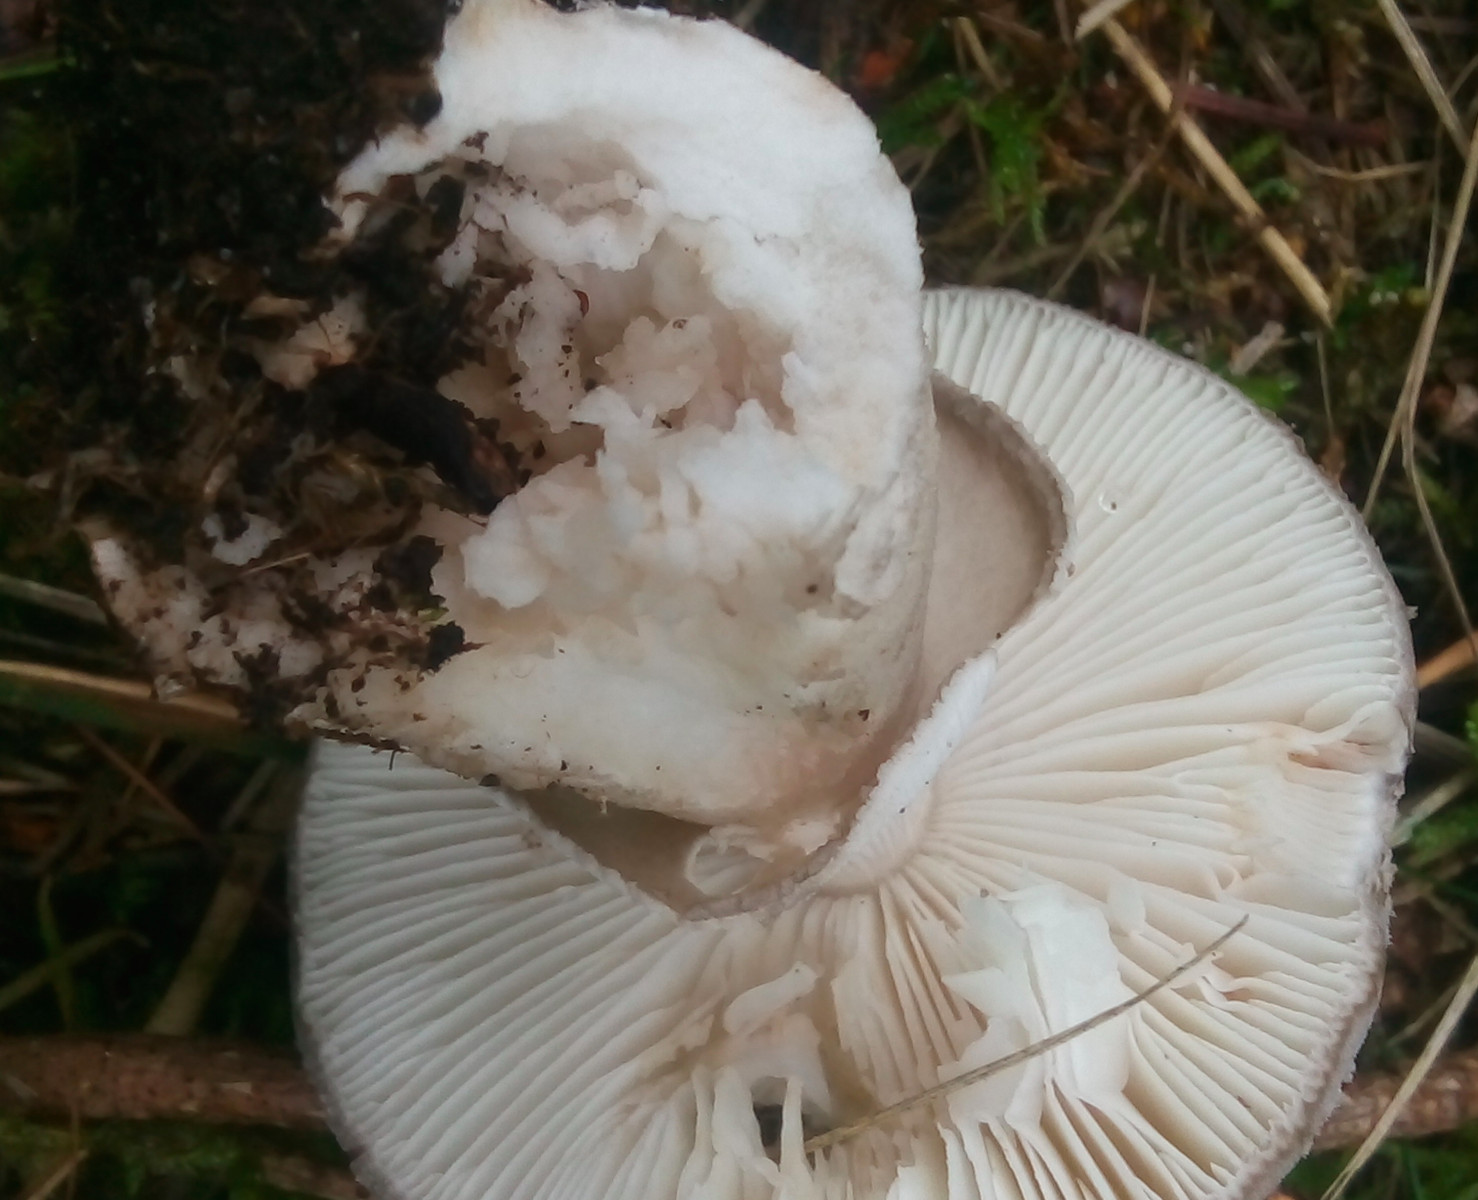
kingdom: Fungi
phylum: Basidiomycota
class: Agaricomycetes
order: Agaricales
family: Amanitaceae
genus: Amanita
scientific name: Amanita
